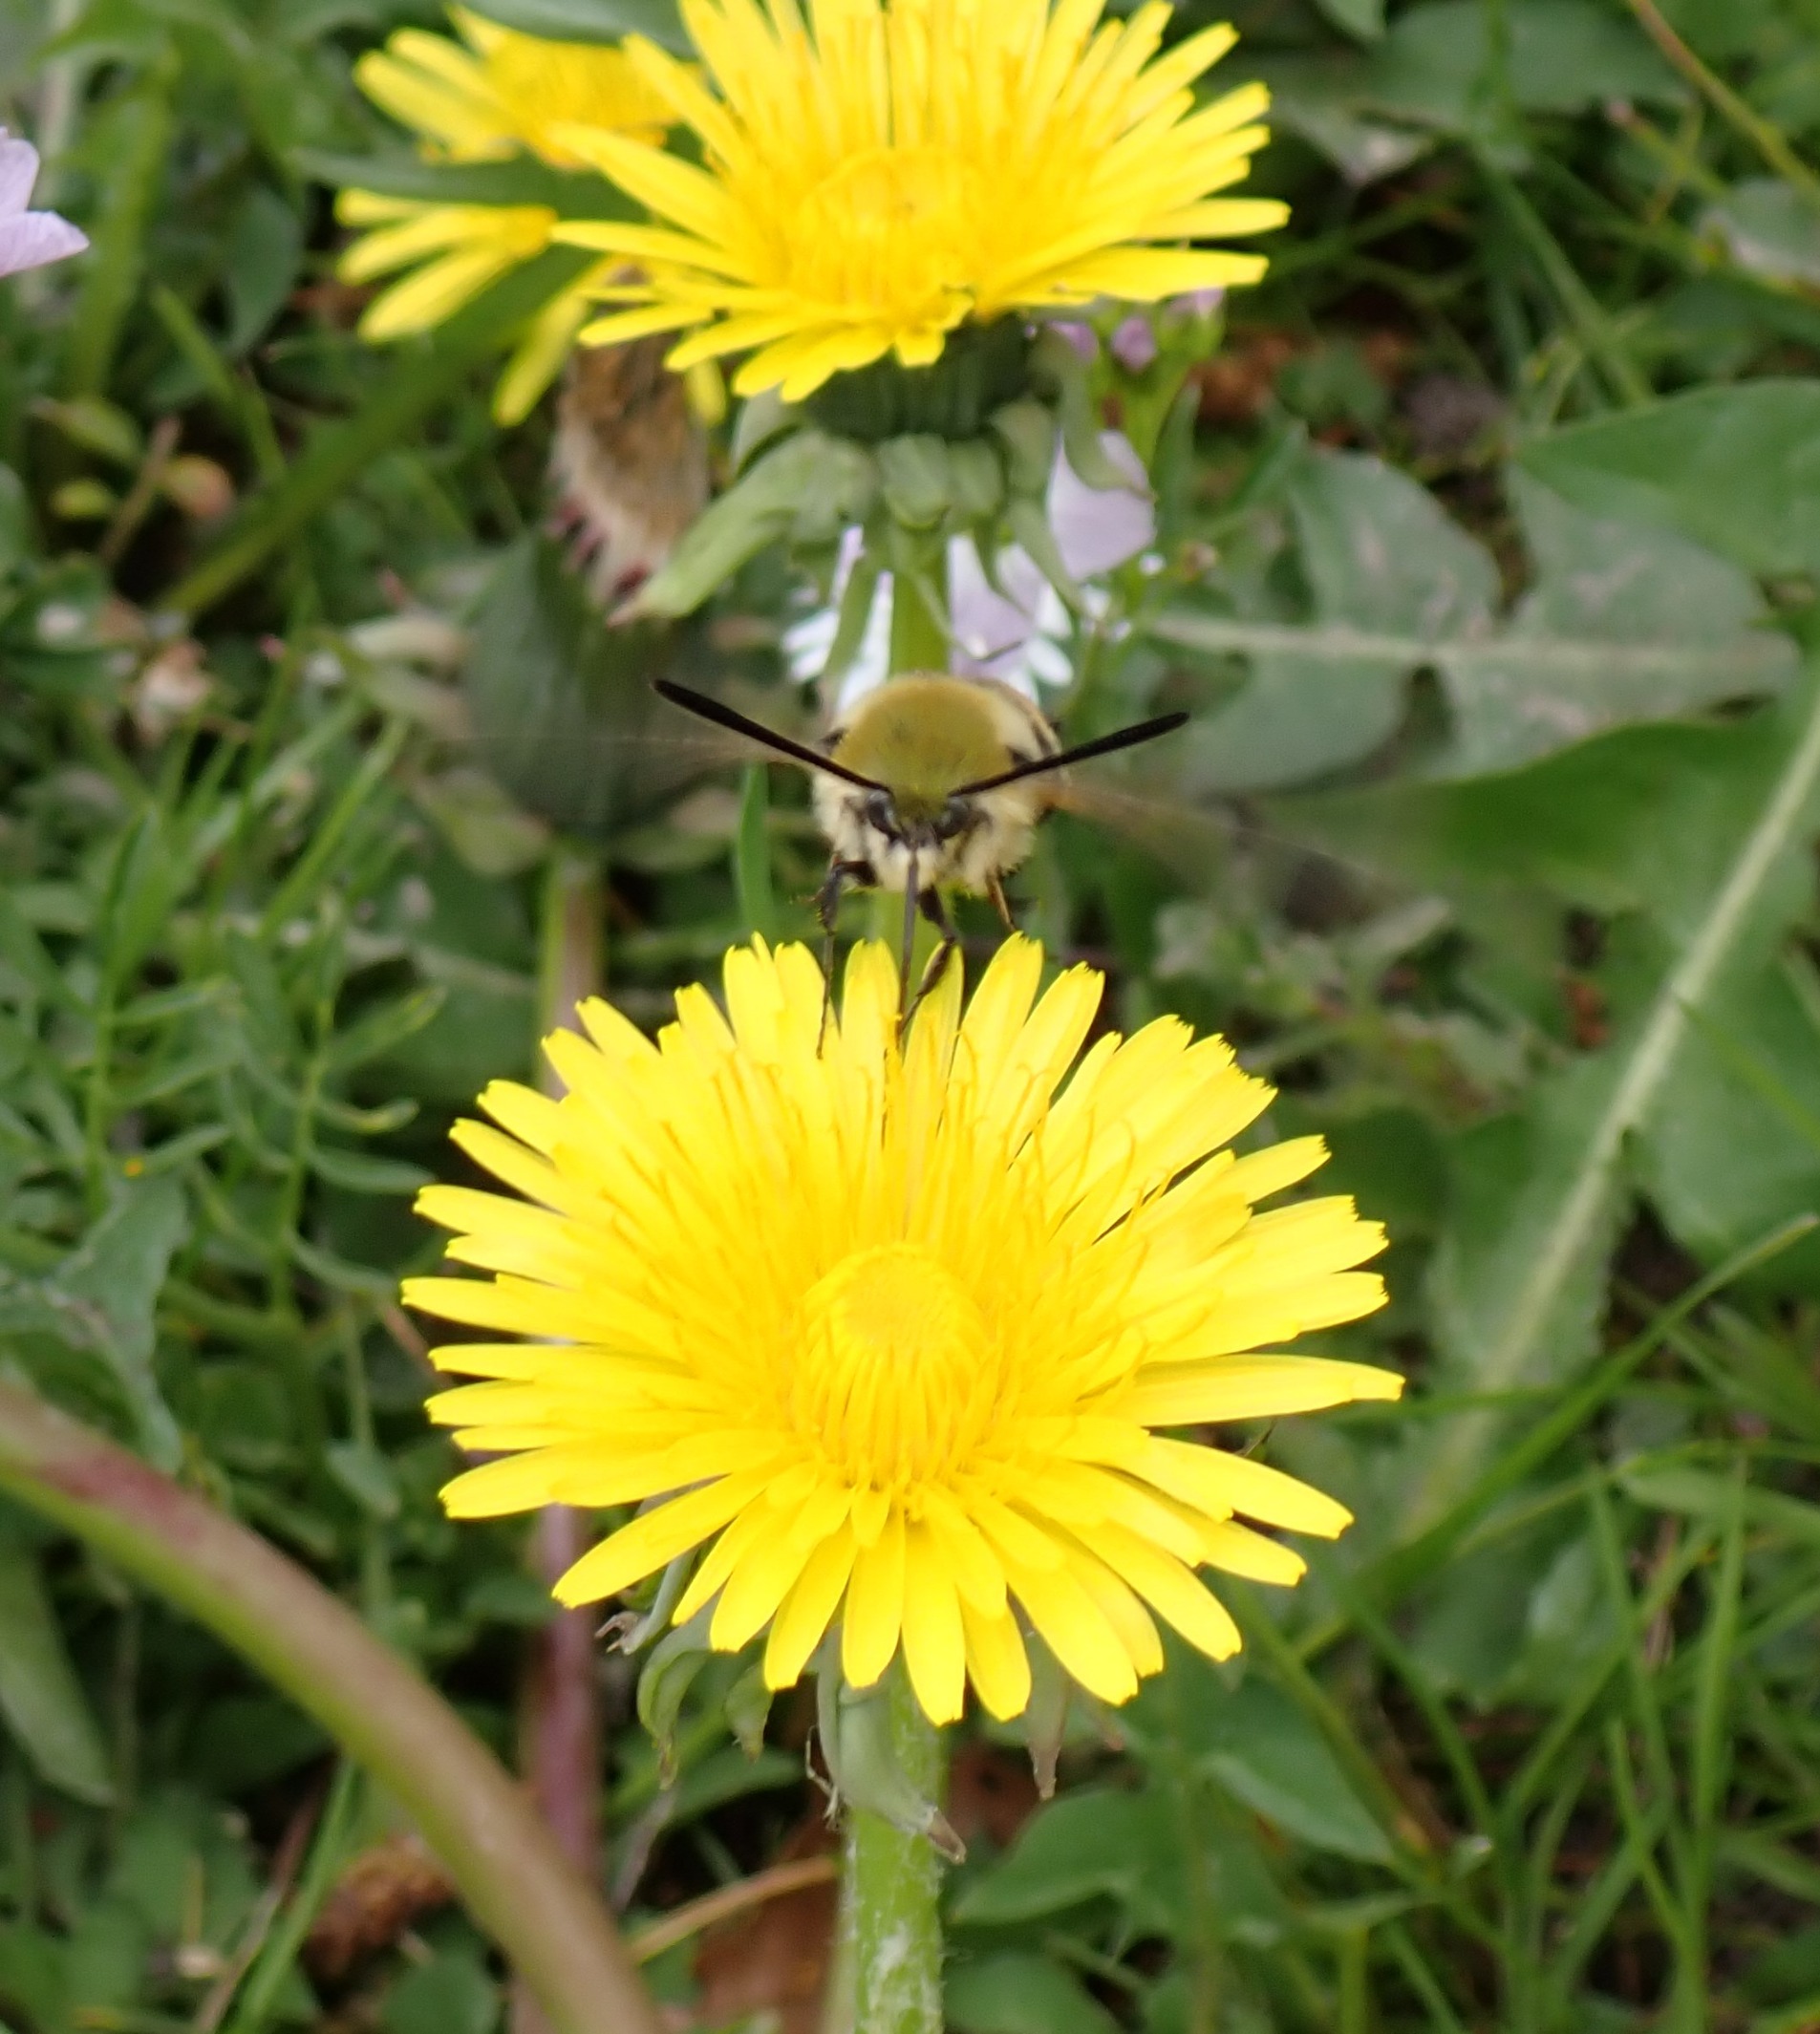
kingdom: Animalia
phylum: Arthropoda
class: Insecta
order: Lepidoptera
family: Sphingidae
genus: Hemaris
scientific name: Hemaris tityus
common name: Smalrandet humlebisværmer
